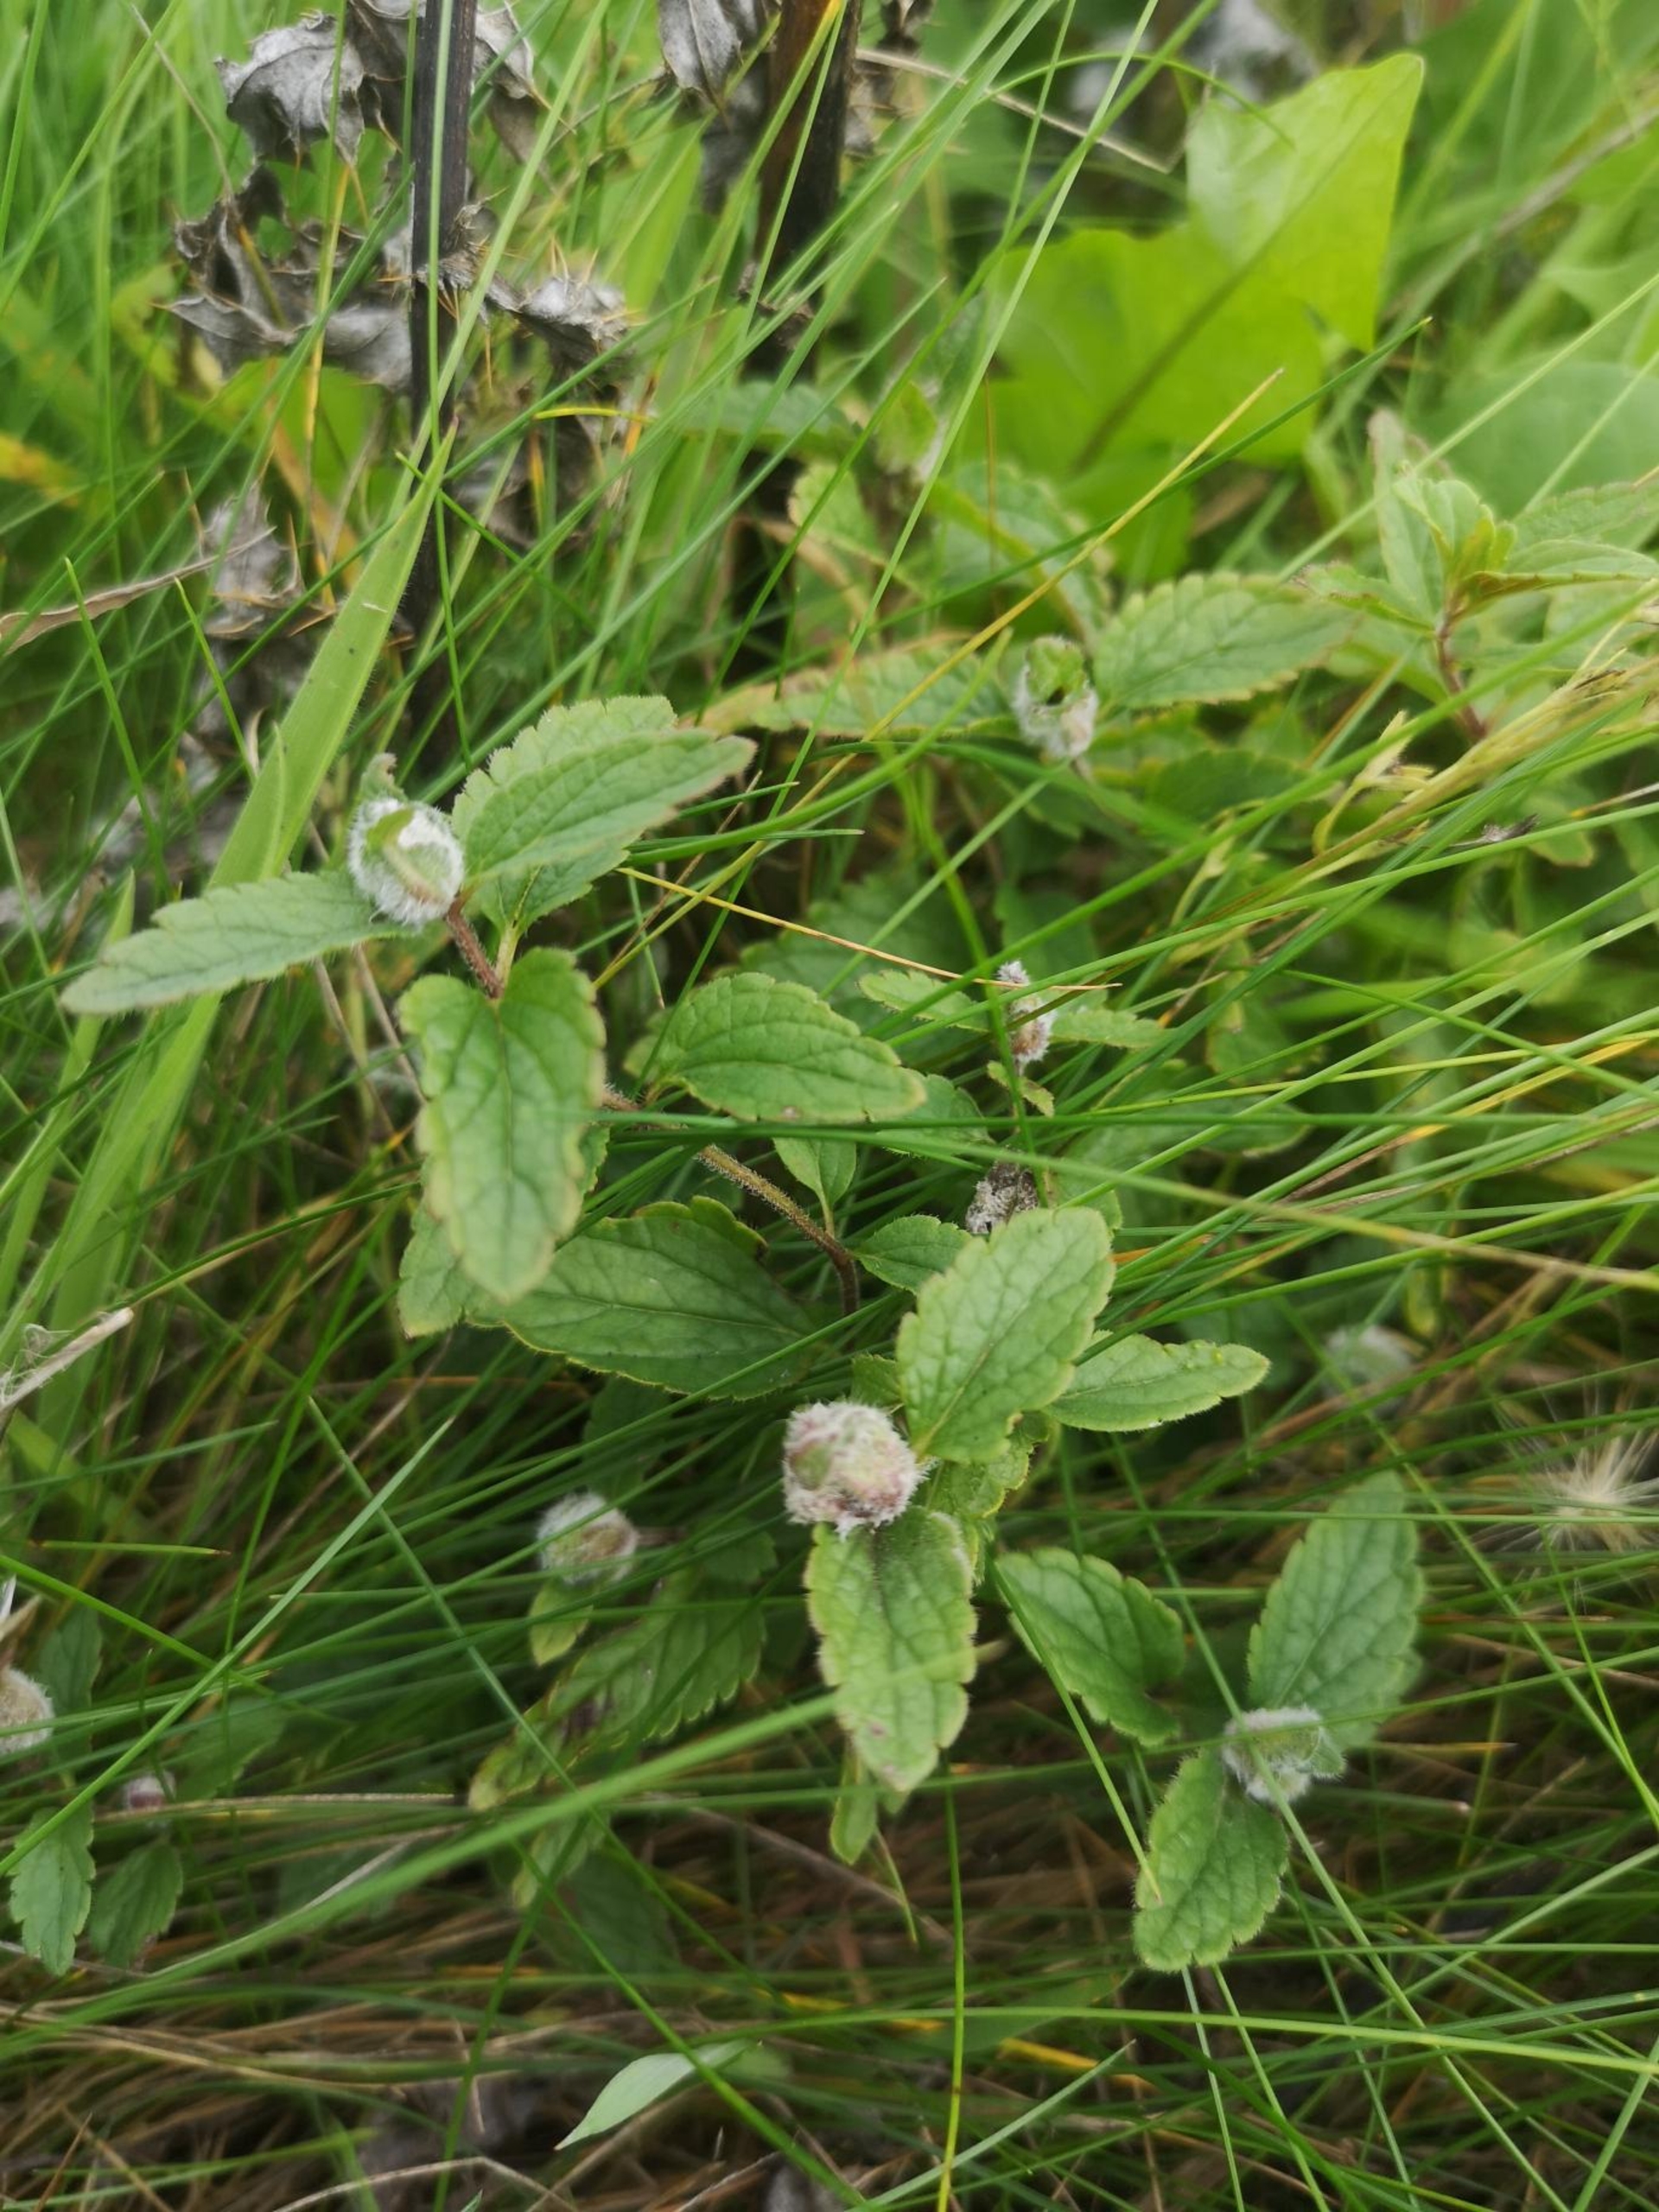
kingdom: Animalia
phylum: Arthropoda
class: Insecta
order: Diptera
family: Cecidomyiidae
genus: Jaapiella
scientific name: Jaapiella veronicae
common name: Ærenprisgalmyg
